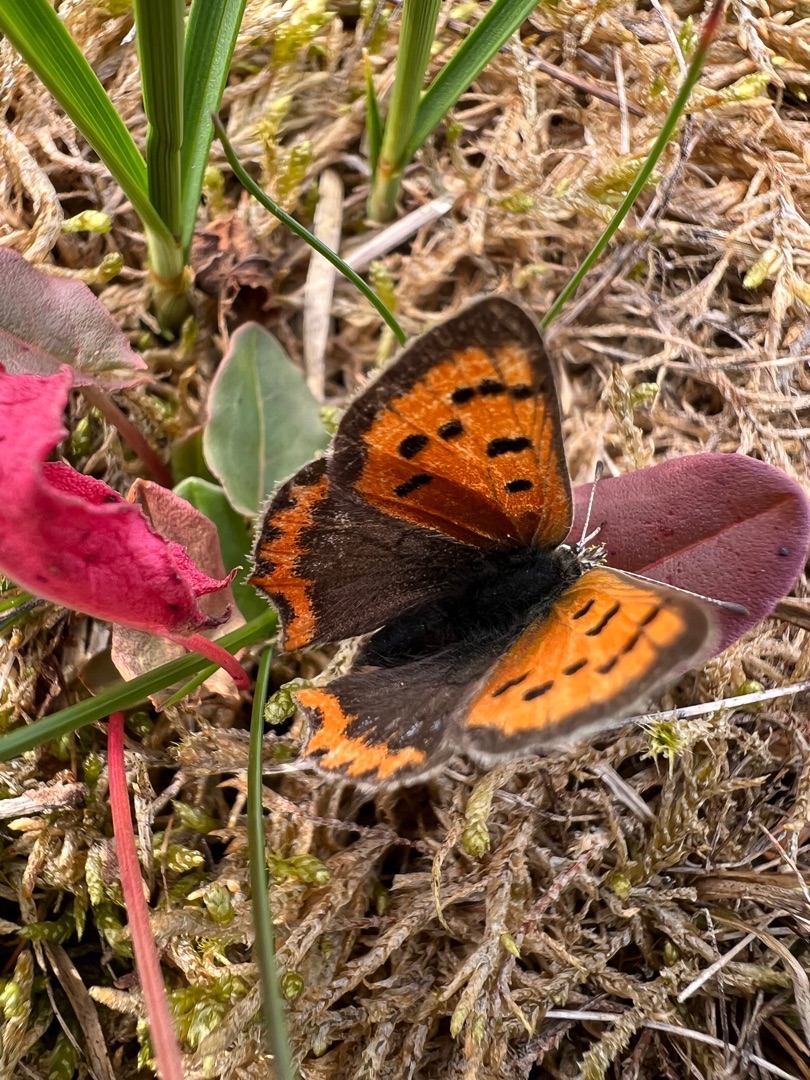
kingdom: Animalia
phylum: Arthropoda
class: Insecta
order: Lepidoptera
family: Lycaenidae
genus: Lycaena
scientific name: Lycaena phlaeas
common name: Lille ildfugl
